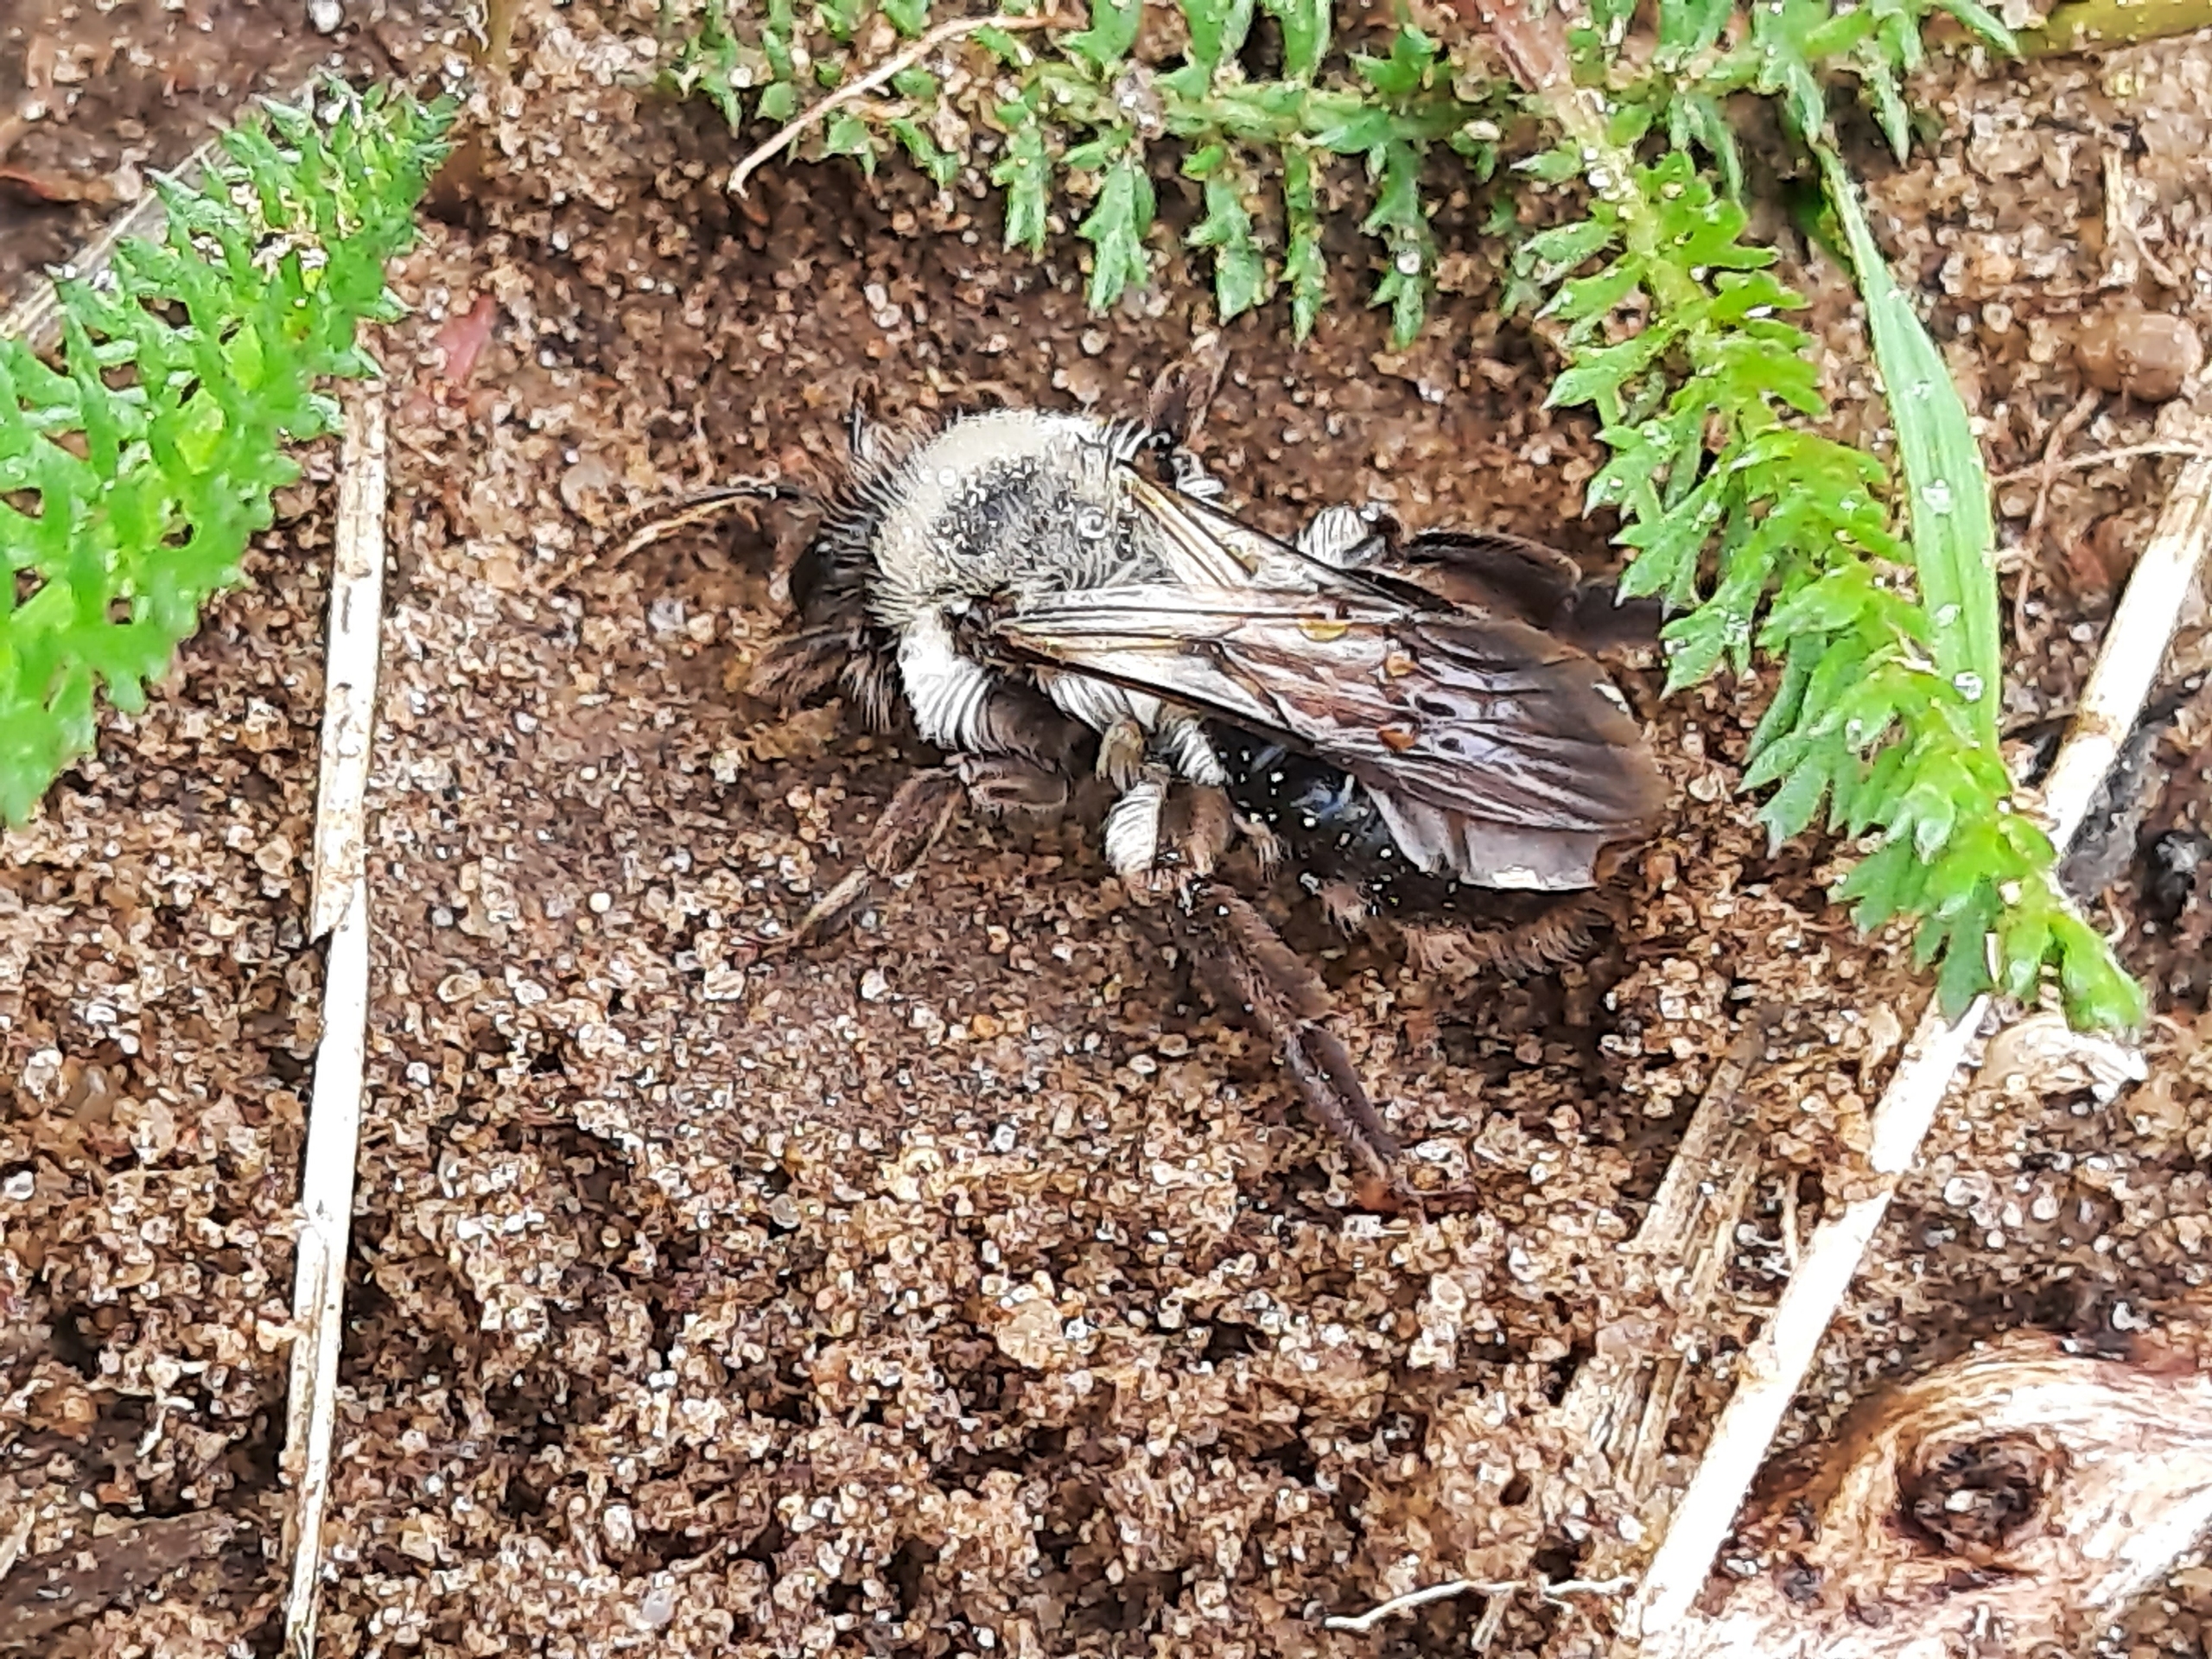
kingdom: Animalia
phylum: Arthropoda
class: Insecta
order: Hymenoptera
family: Andrenidae
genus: Andrena
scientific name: Andrena vaga
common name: Hvidbrystet jordbi
